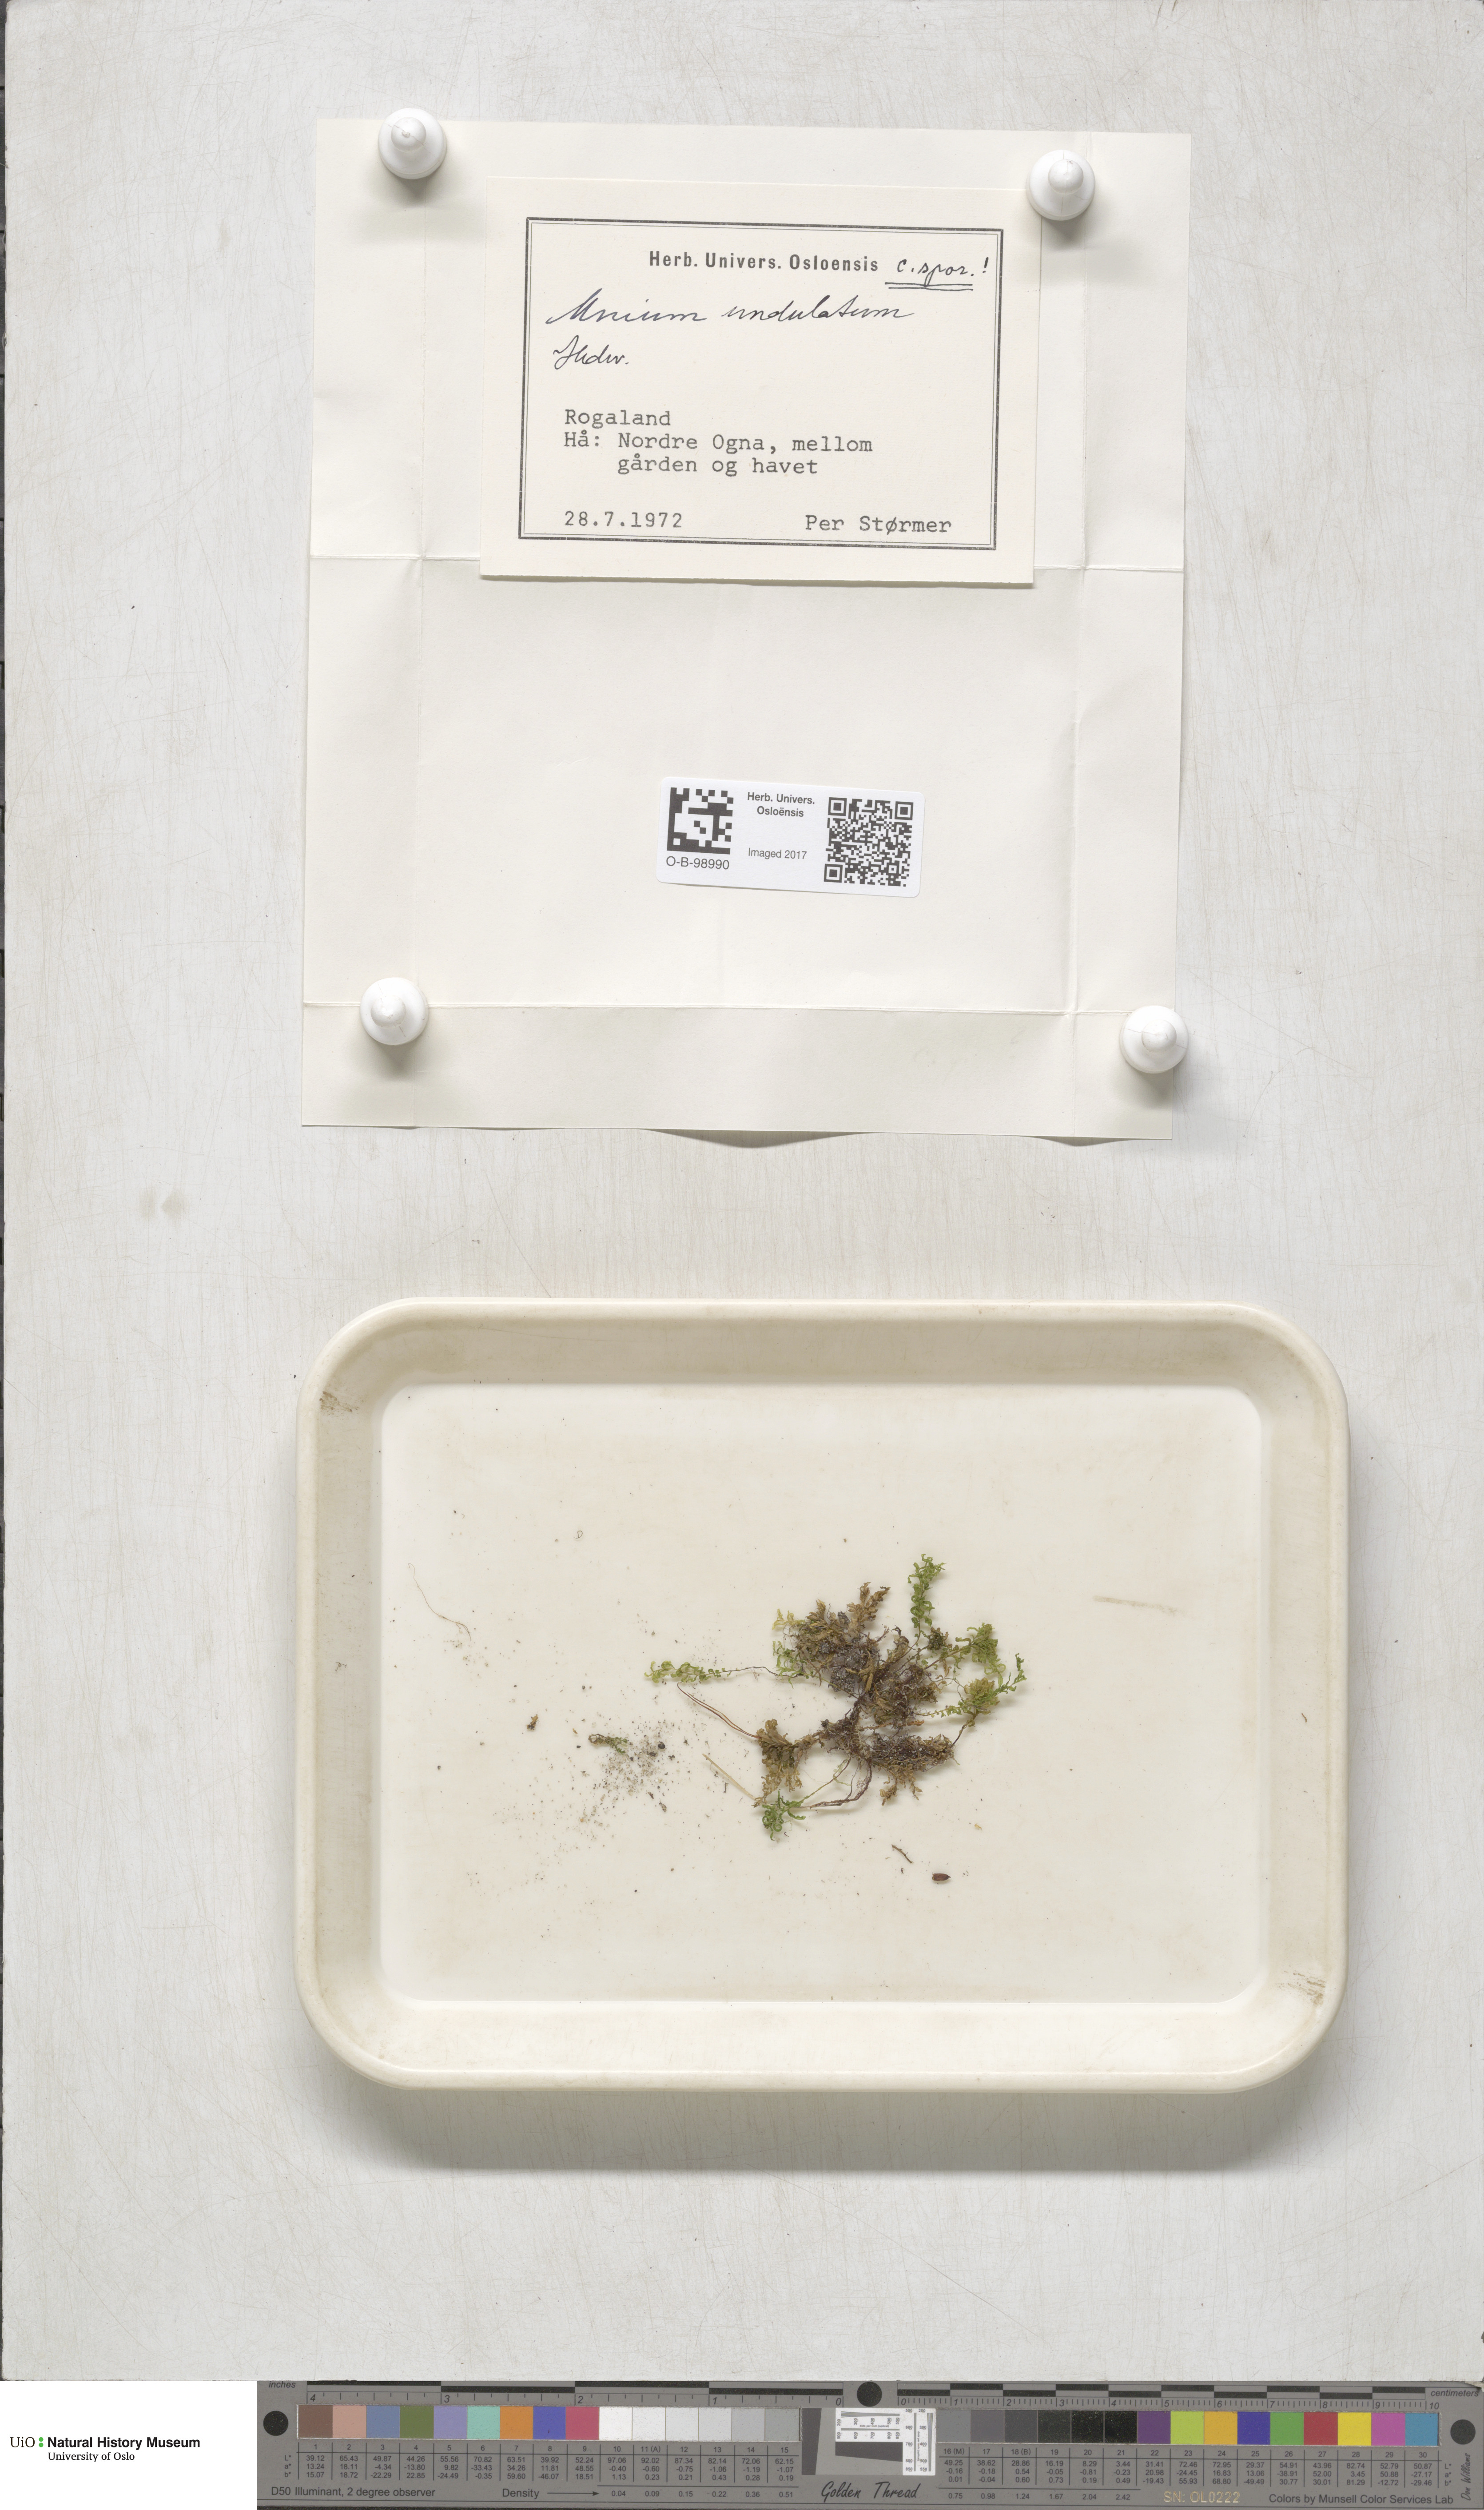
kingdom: Plantae
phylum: Bryophyta
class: Bryopsida
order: Bryales
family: Mniaceae
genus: Plagiomnium
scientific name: Plagiomnium undulatum
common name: Hart's-tongue thyme-moss
